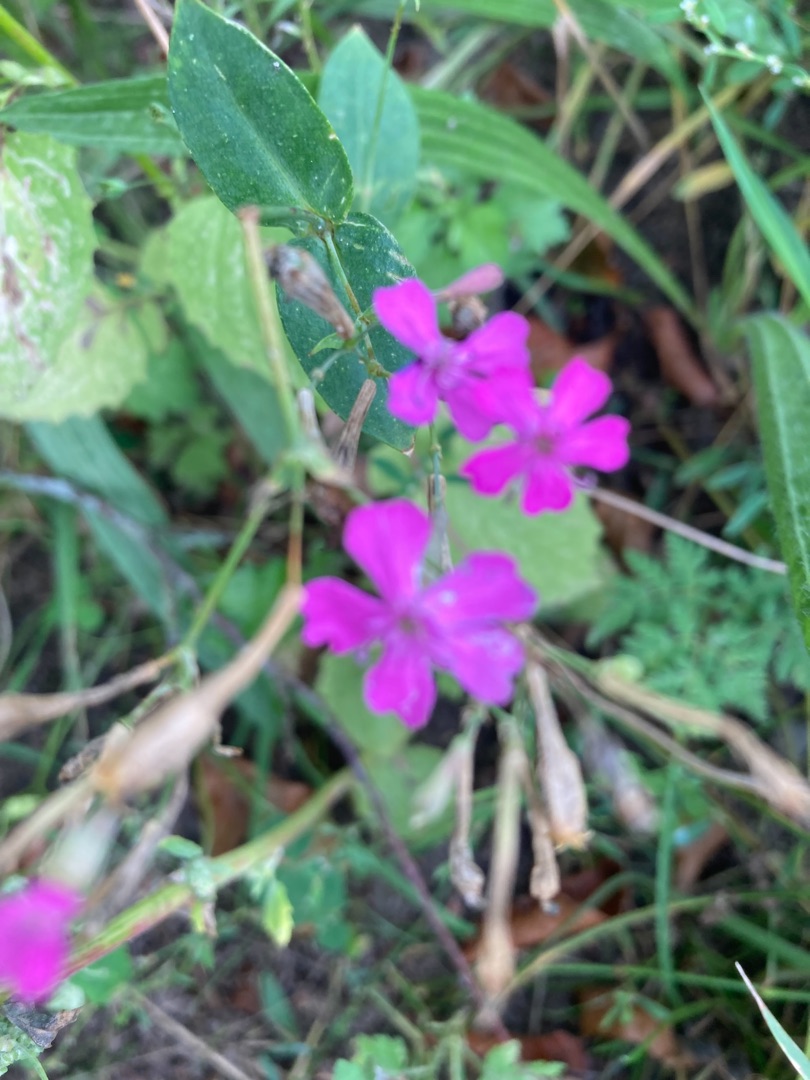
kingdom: Plantae
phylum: Tracheophyta
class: Magnoliopsida
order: Caryophyllales
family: Caryophyllaceae
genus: Atocion
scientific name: Atocion armeria
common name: Knippe-limurt
